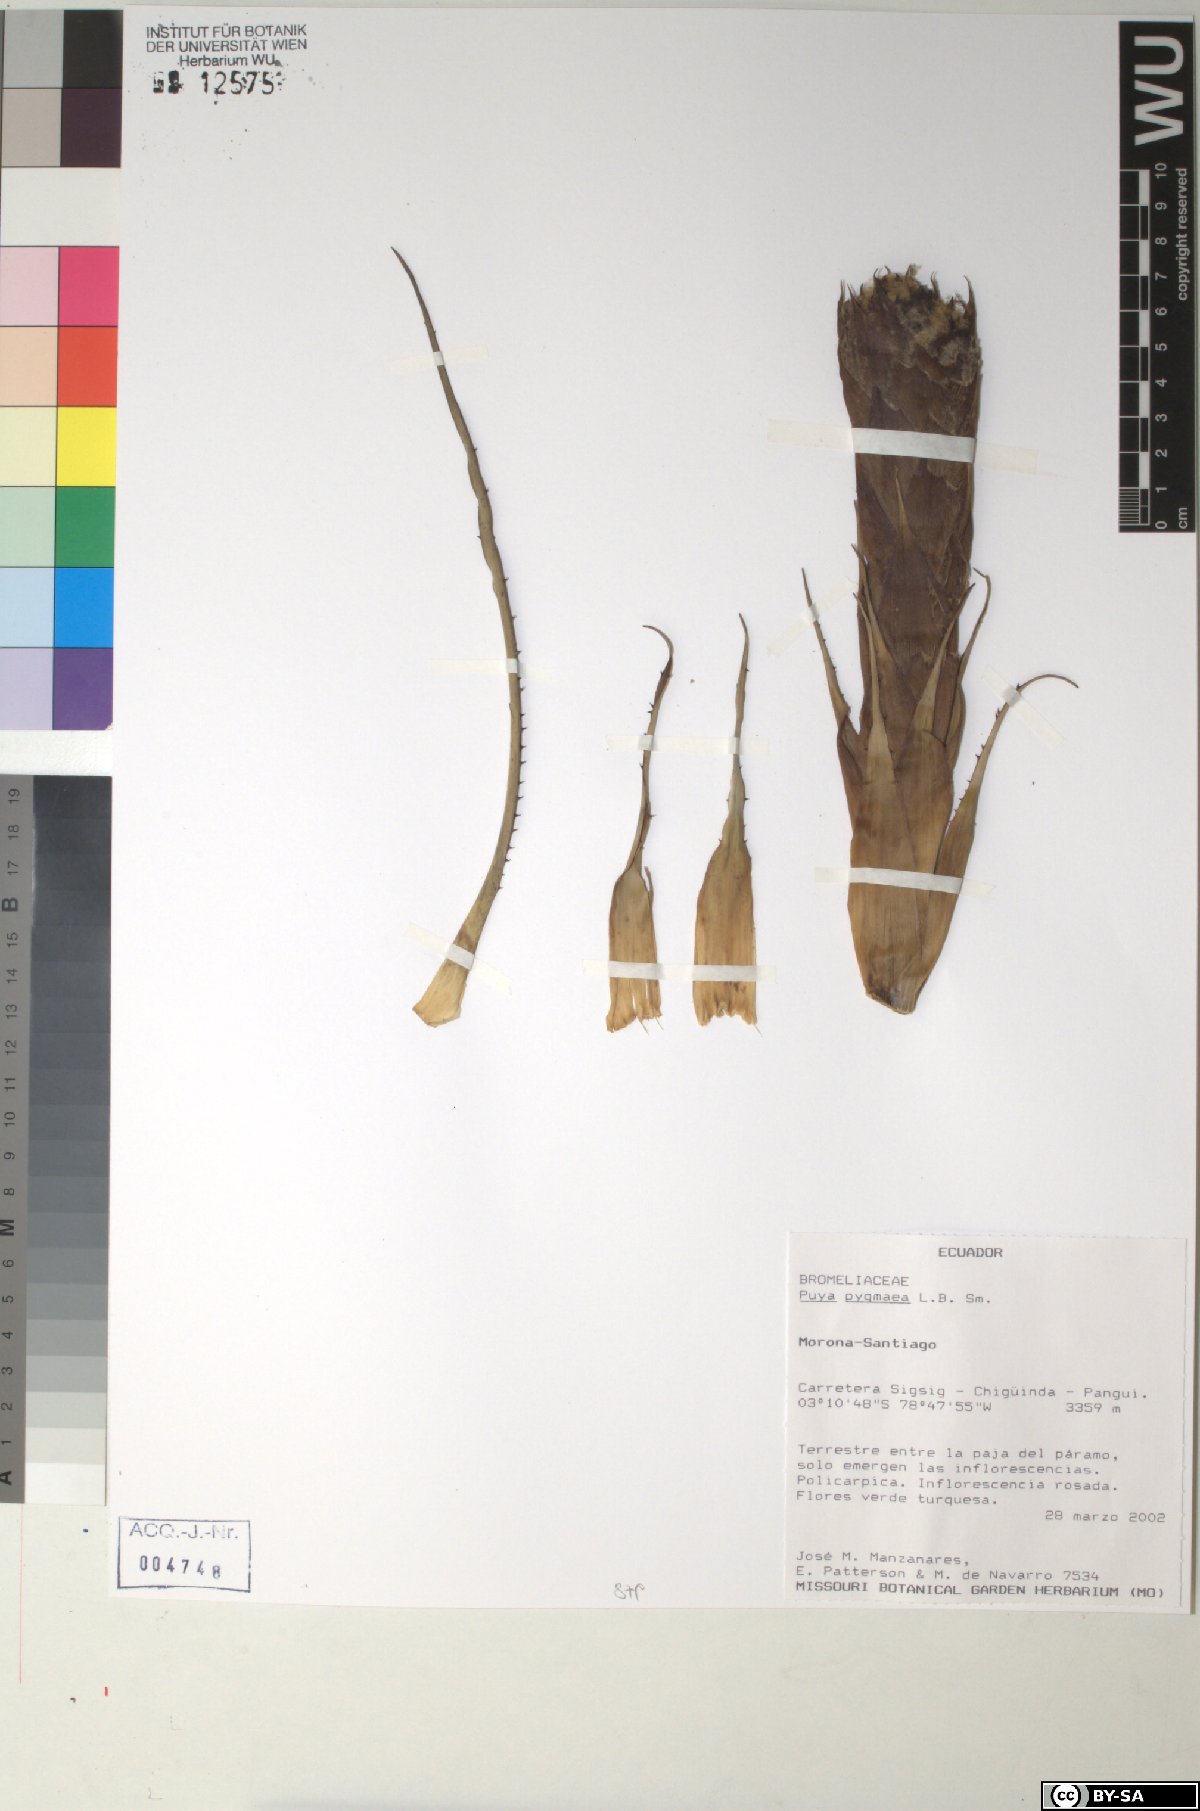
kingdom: Plantae
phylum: Tracheophyta
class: Liliopsida
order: Poales
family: Bromeliaceae
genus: Puya
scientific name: Puya pygmaea
